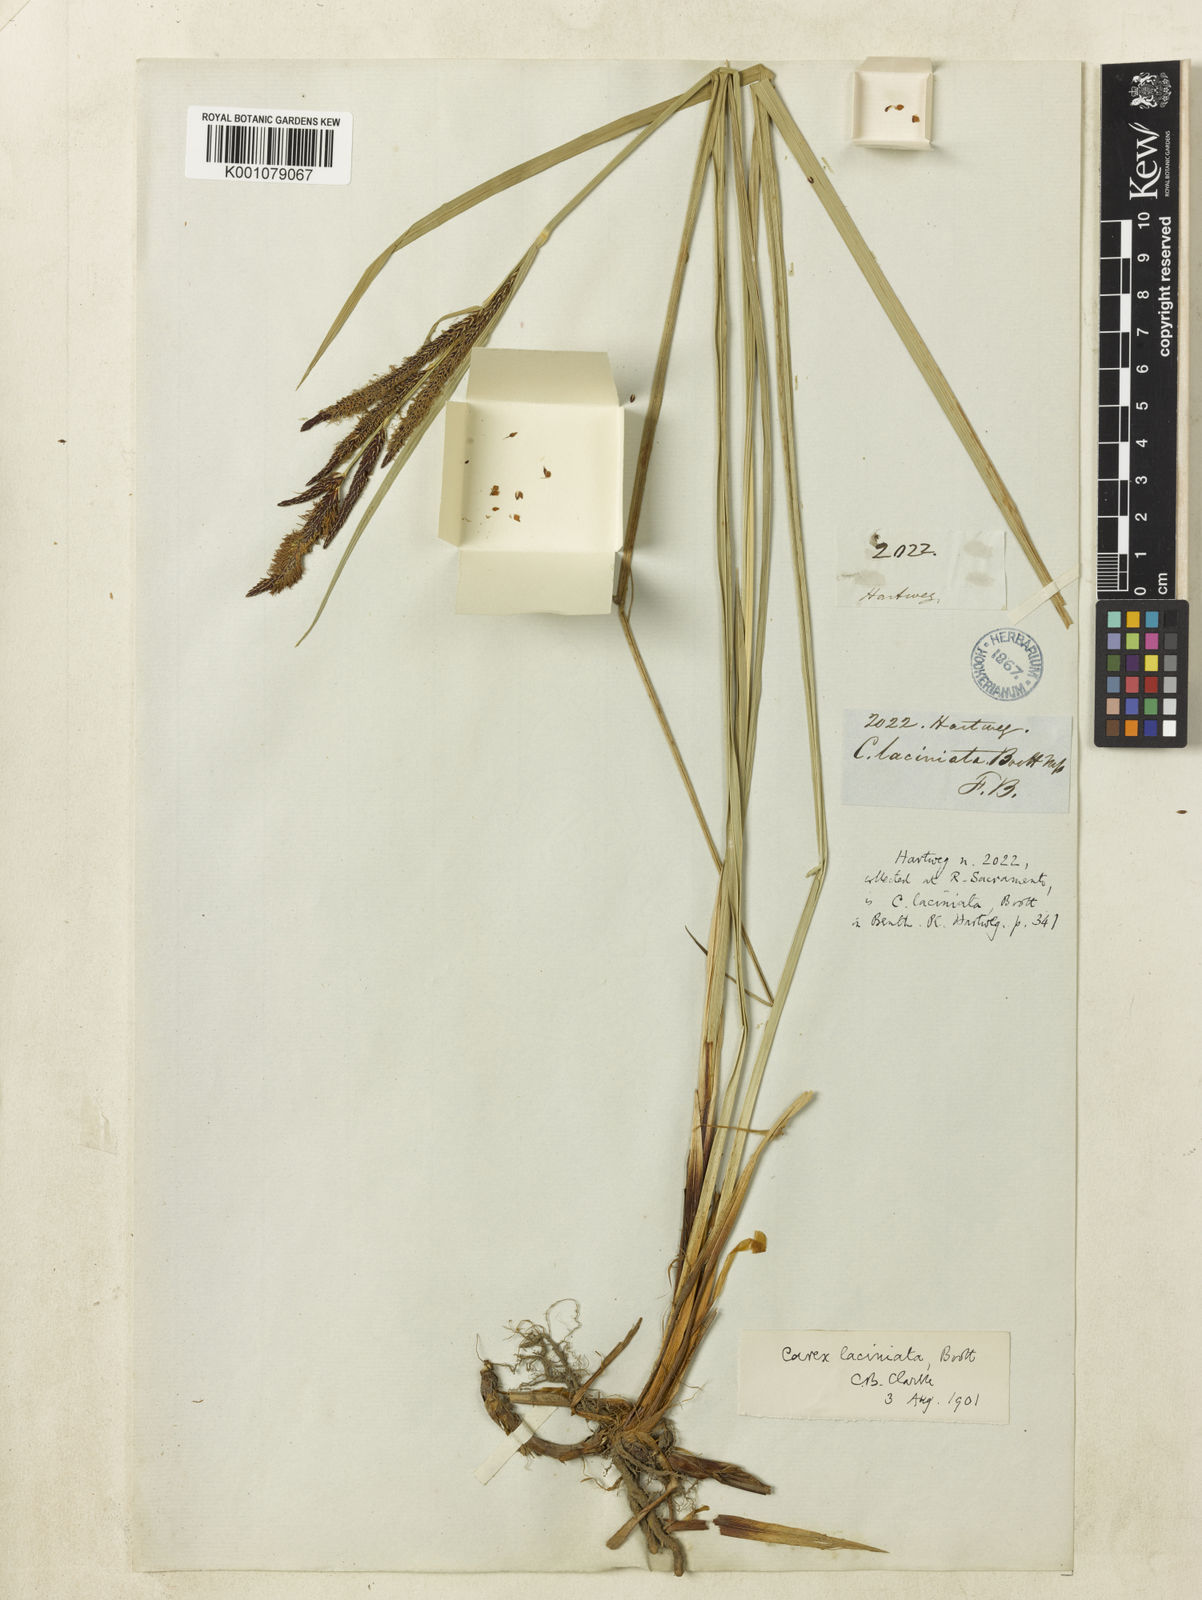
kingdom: Plantae
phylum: Tracheophyta
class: Liliopsida
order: Poales
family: Cyperaceae
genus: Carex
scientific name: Carex
